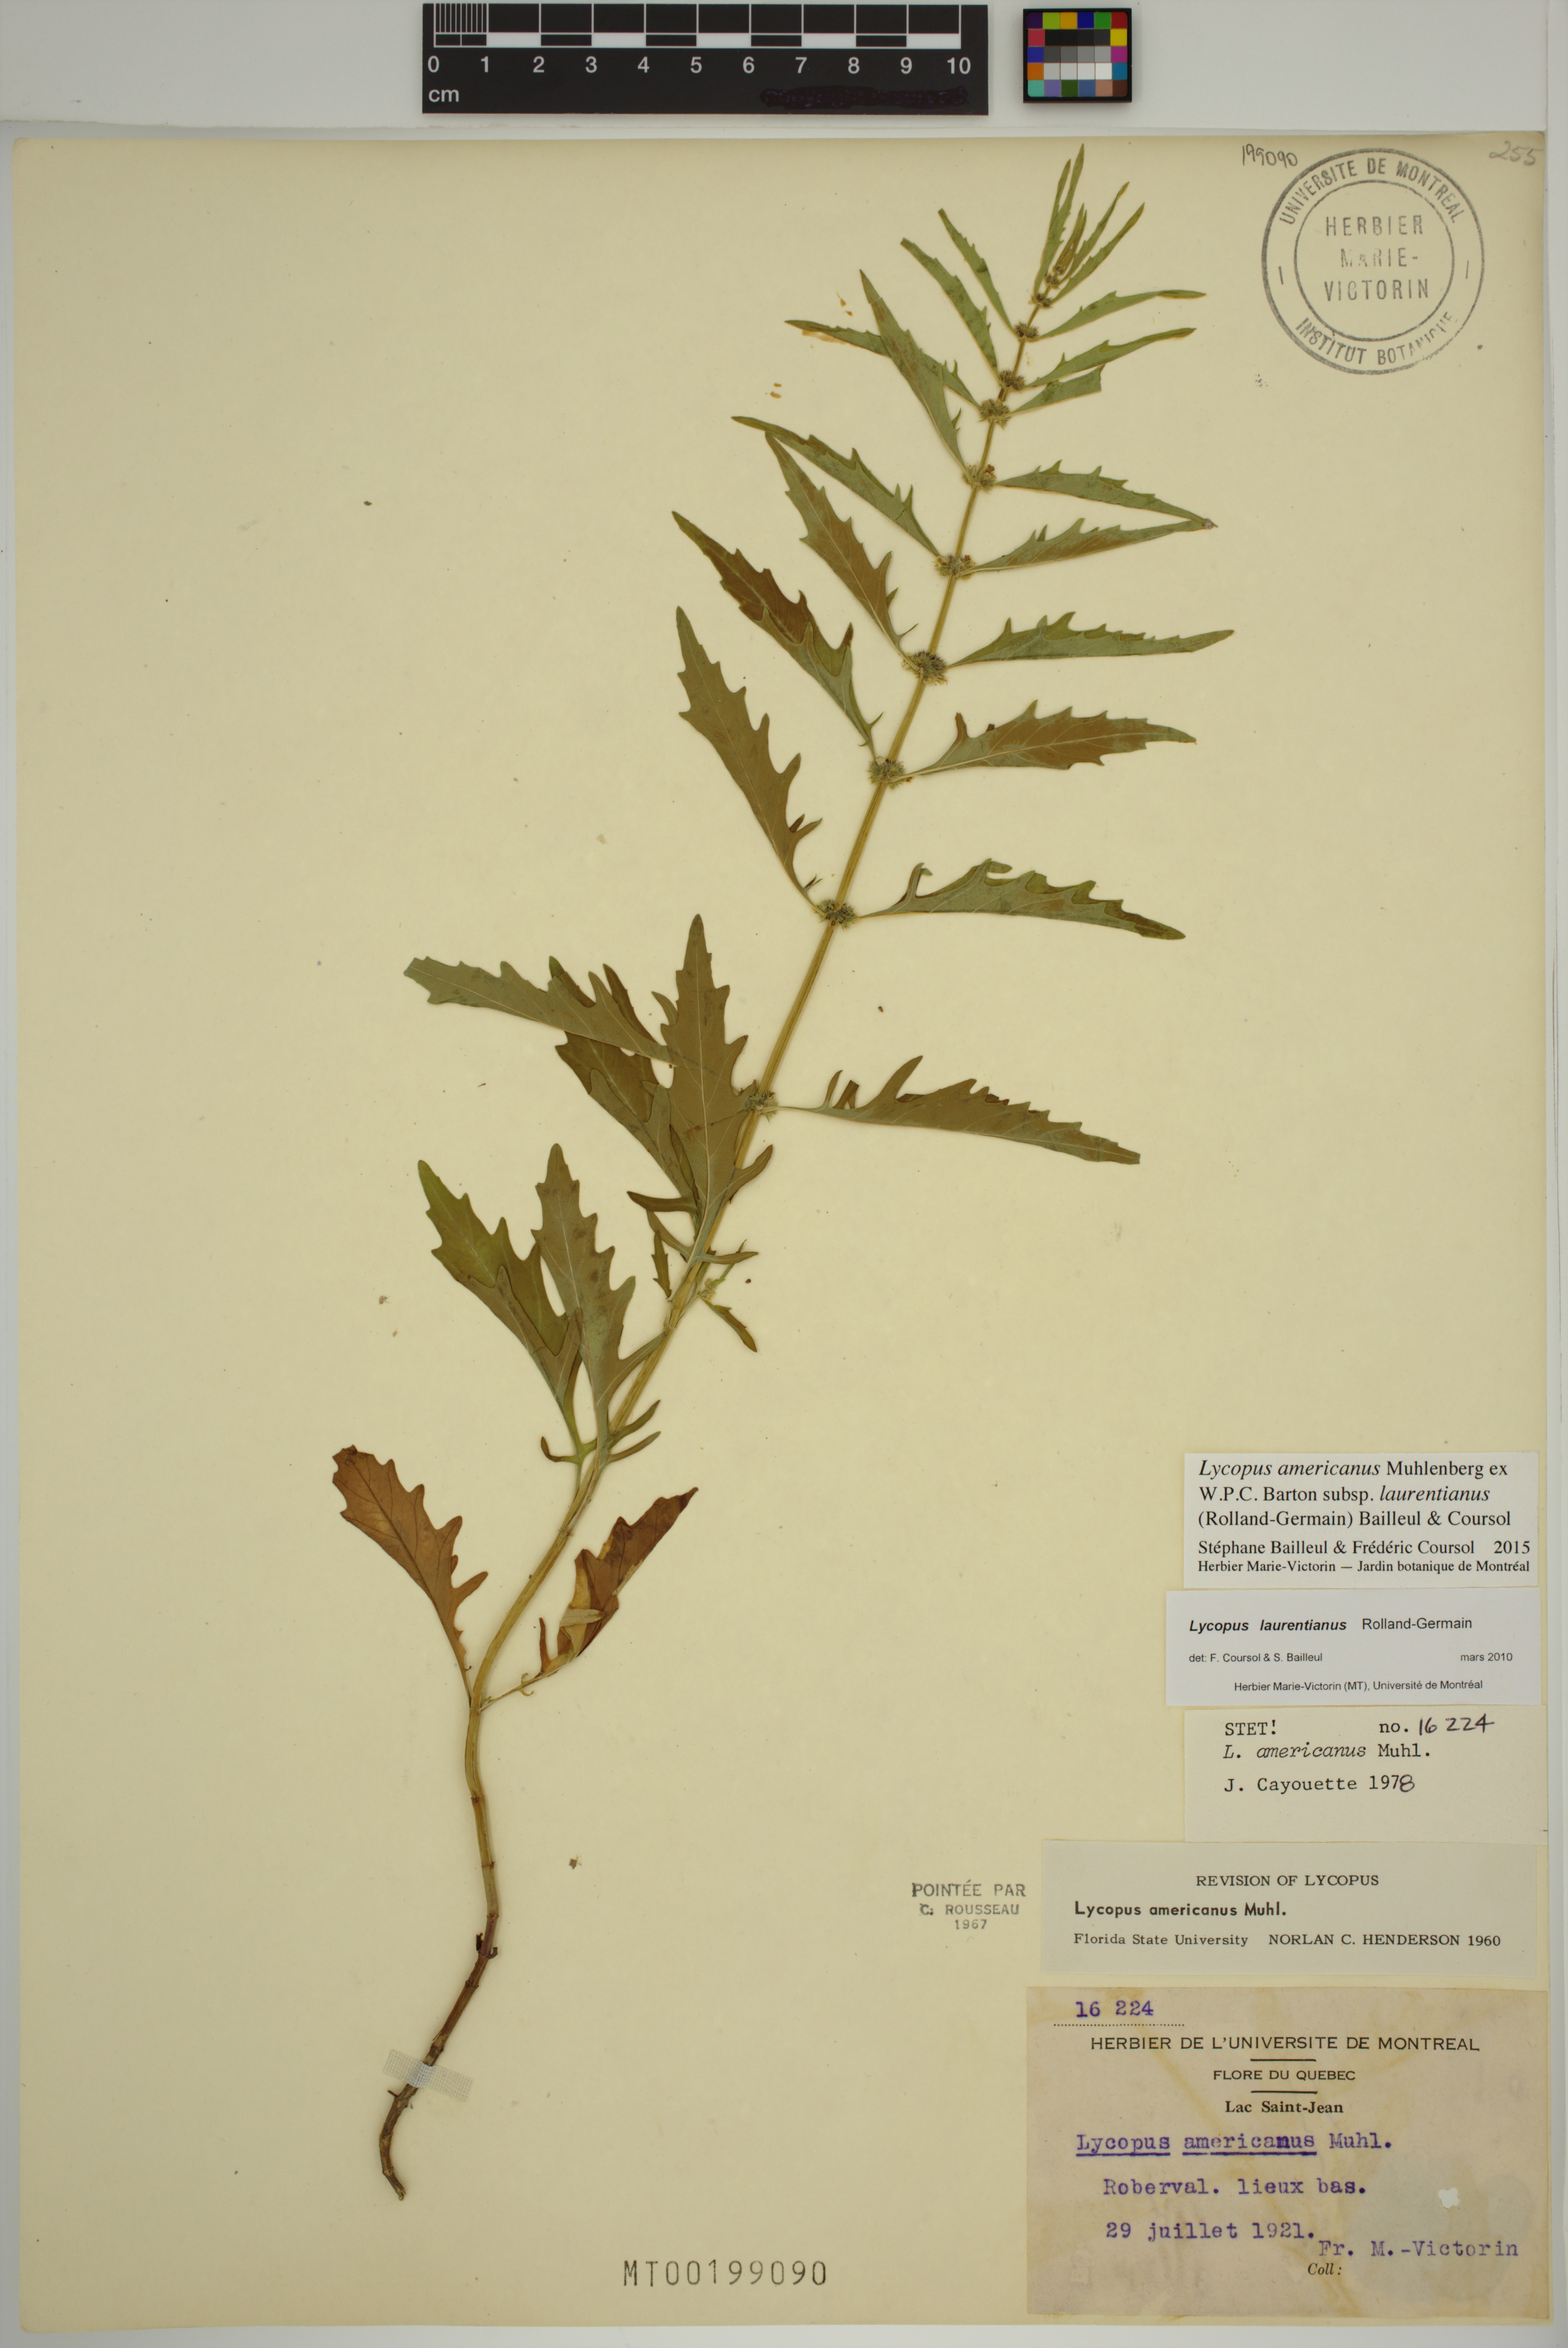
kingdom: Plantae
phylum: Tracheophyta
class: Magnoliopsida
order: Lamiales
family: Lamiaceae
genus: Lycopus
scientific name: Lycopus americanus
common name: American bugleweed
